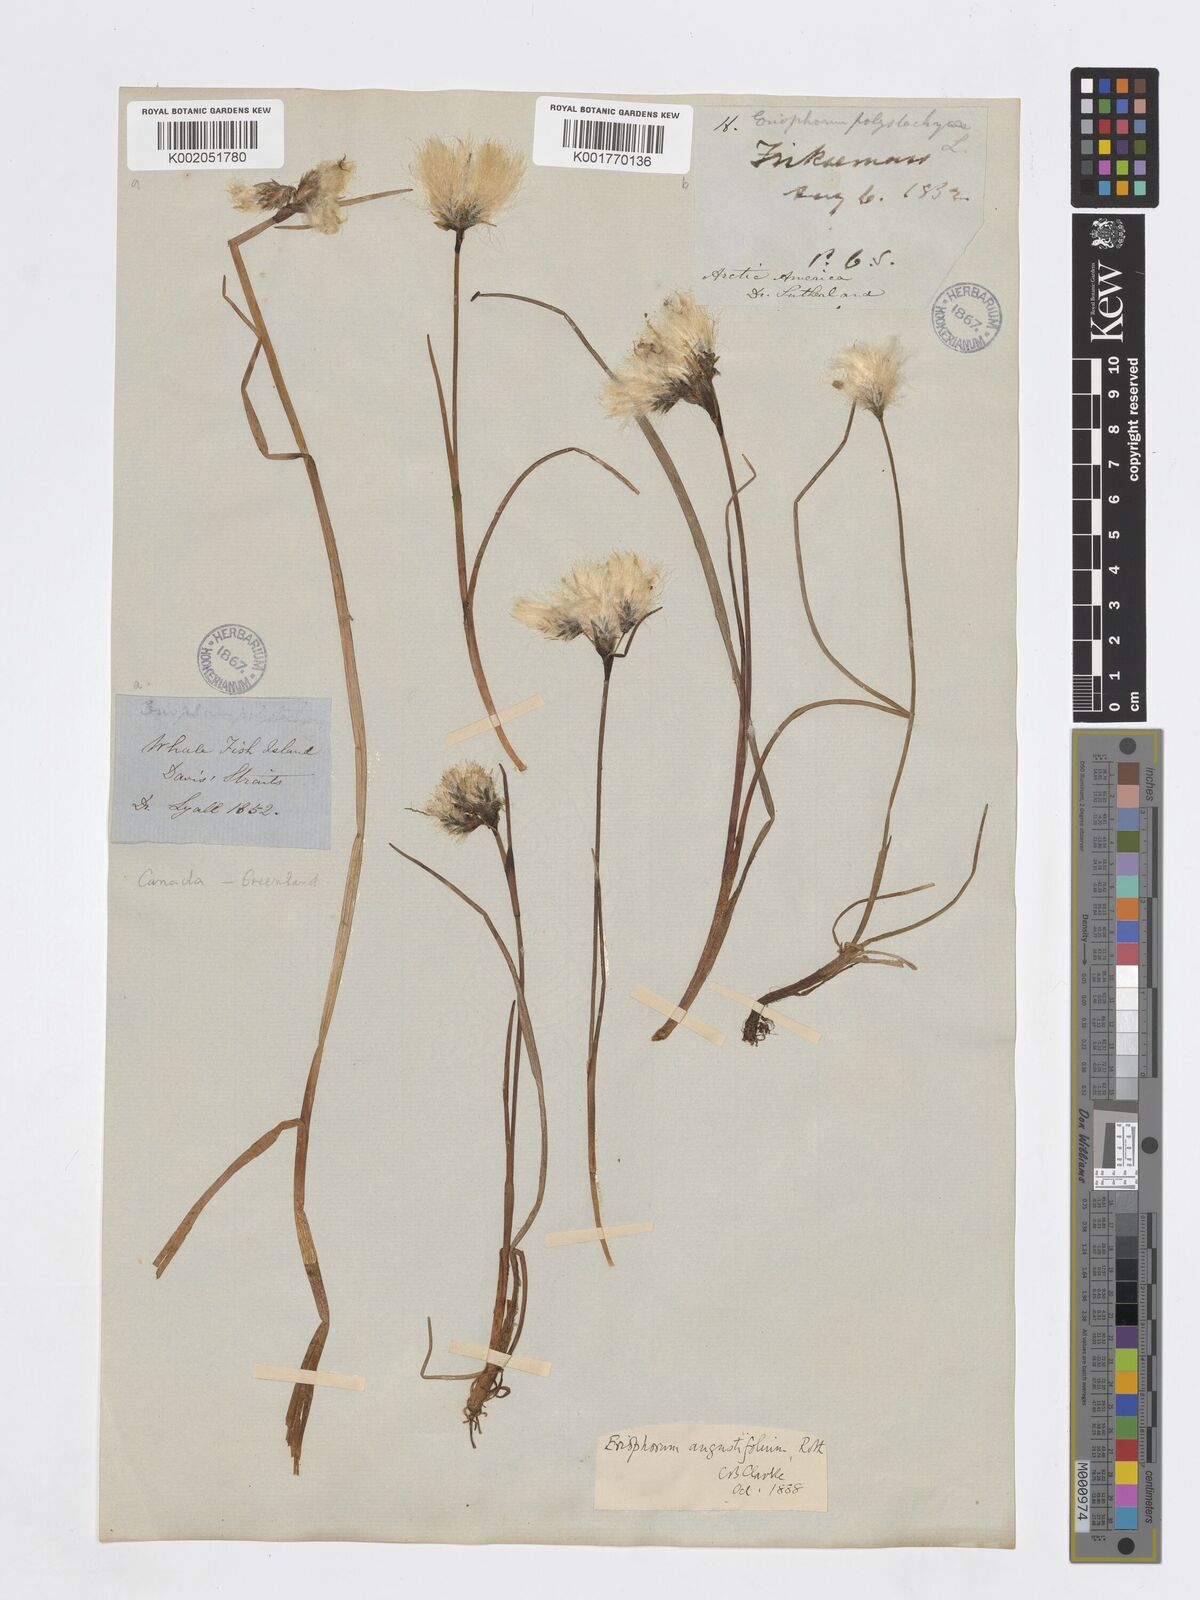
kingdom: Plantae
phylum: Tracheophyta
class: Liliopsida
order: Poales
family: Cyperaceae
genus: Eriophorum
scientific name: Eriophorum angustifolium
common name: Common cottongrass
